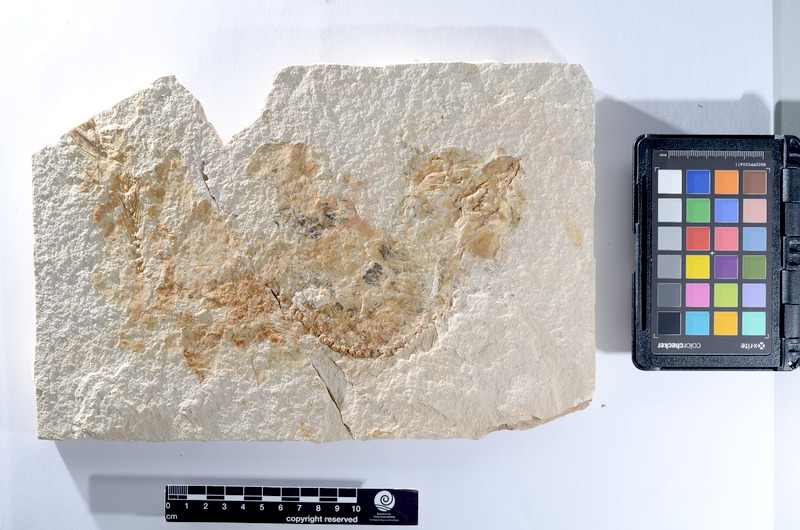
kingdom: Animalia
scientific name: Animalia
